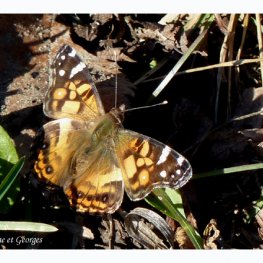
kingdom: Animalia
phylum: Arthropoda
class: Insecta
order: Lepidoptera
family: Nymphalidae
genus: Vanessa
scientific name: Vanessa virginiensis
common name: American Lady
